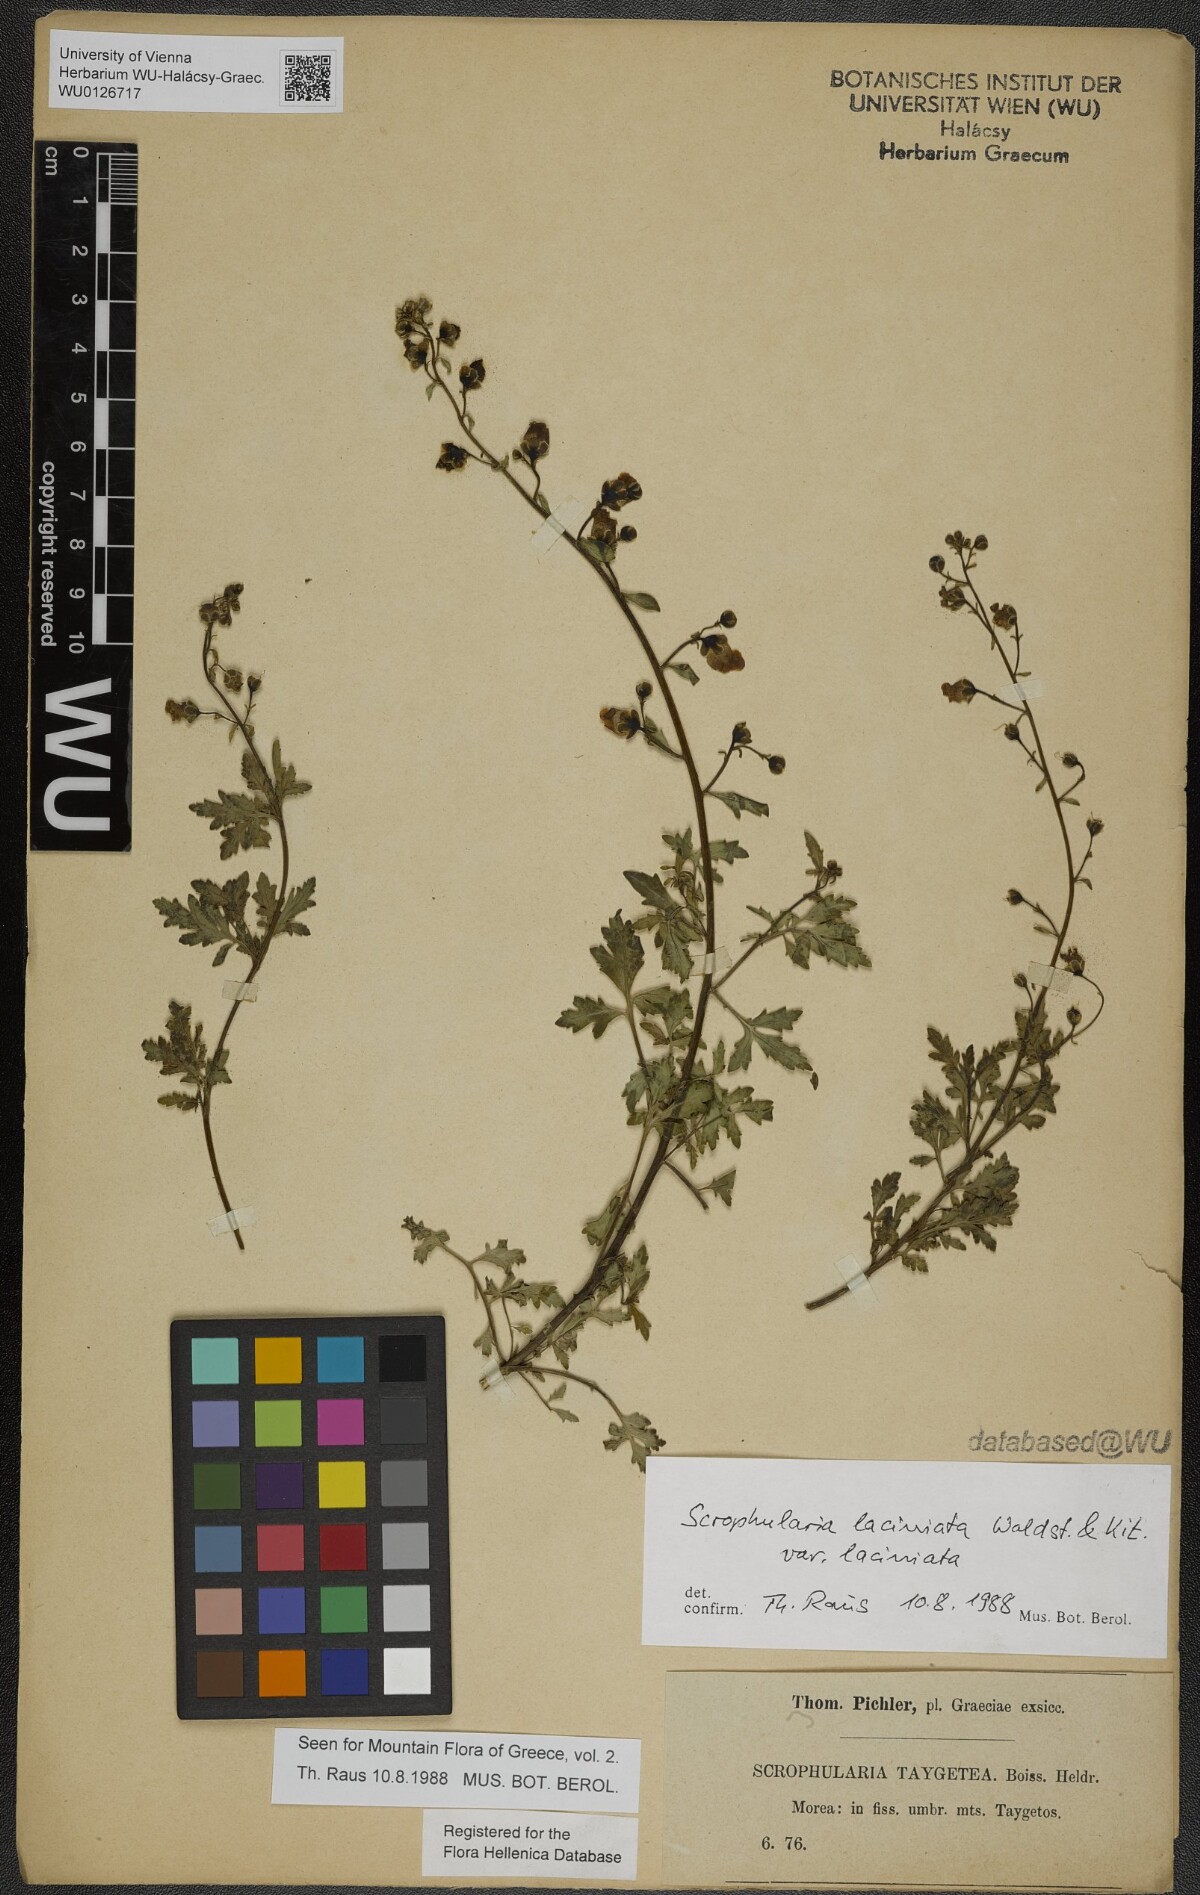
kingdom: Plantae
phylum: Tracheophyta
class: Magnoliopsida
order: Lamiales
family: Scrophulariaceae
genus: Scrophularia
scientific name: Scrophularia laciniata
